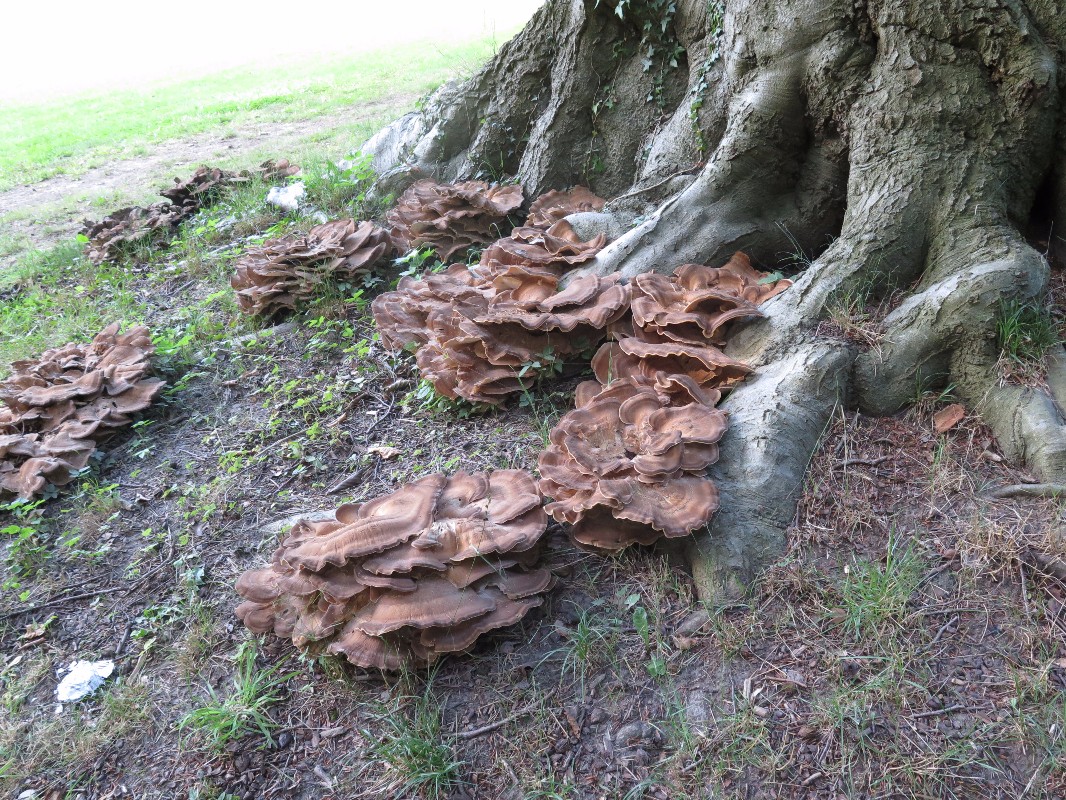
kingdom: Fungi
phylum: Basidiomycota
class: Agaricomycetes
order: Polyporales
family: Meripilaceae
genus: Meripilus
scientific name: Meripilus giganteus
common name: kæmpeporesvamp
